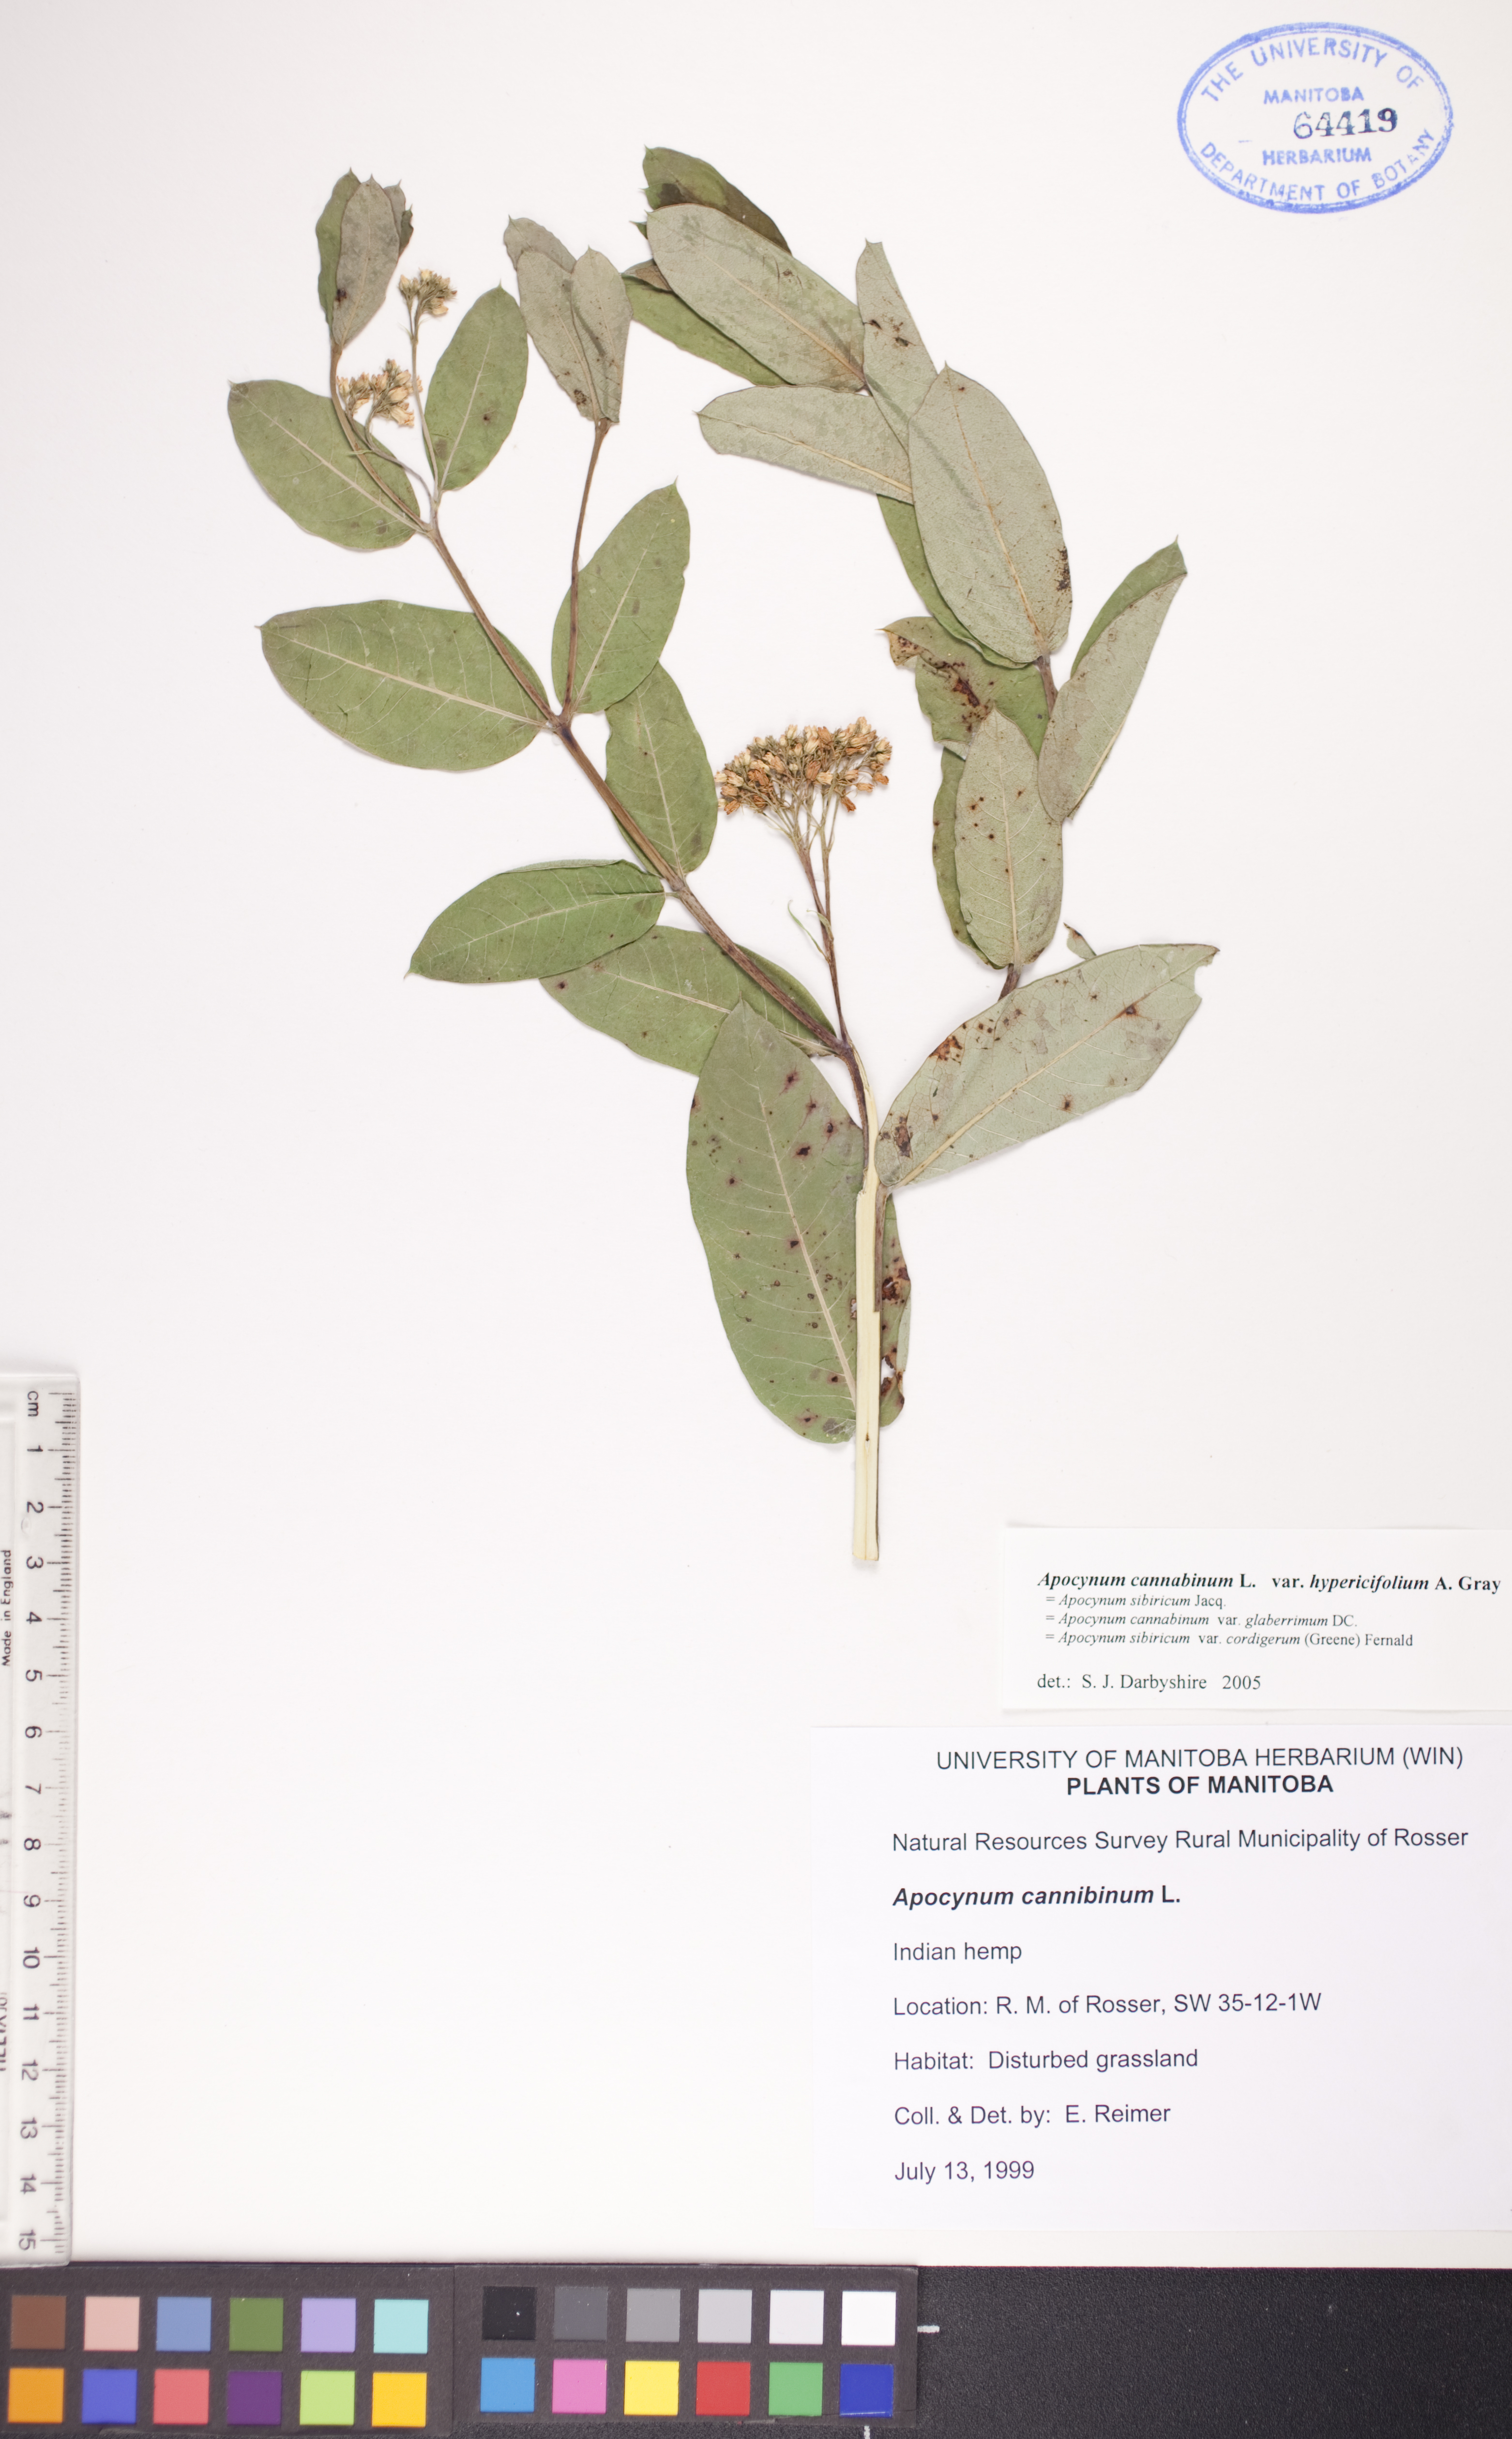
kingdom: Plantae
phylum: Tracheophyta
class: Magnoliopsida
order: Gentianales
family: Apocynaceae
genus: Apocynum
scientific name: Apocynum cannabinum
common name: Hemp dogbane
